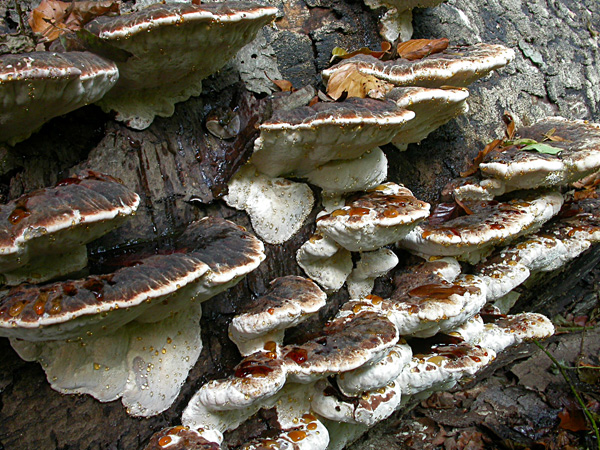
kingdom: Fungi
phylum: Basidiomycota
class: Agaricomycetes
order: Polyporales
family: Ischnodermataceae
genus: Ischnoderma
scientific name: Ischnoderma resinosum
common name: løv-tjæreporesvamp
